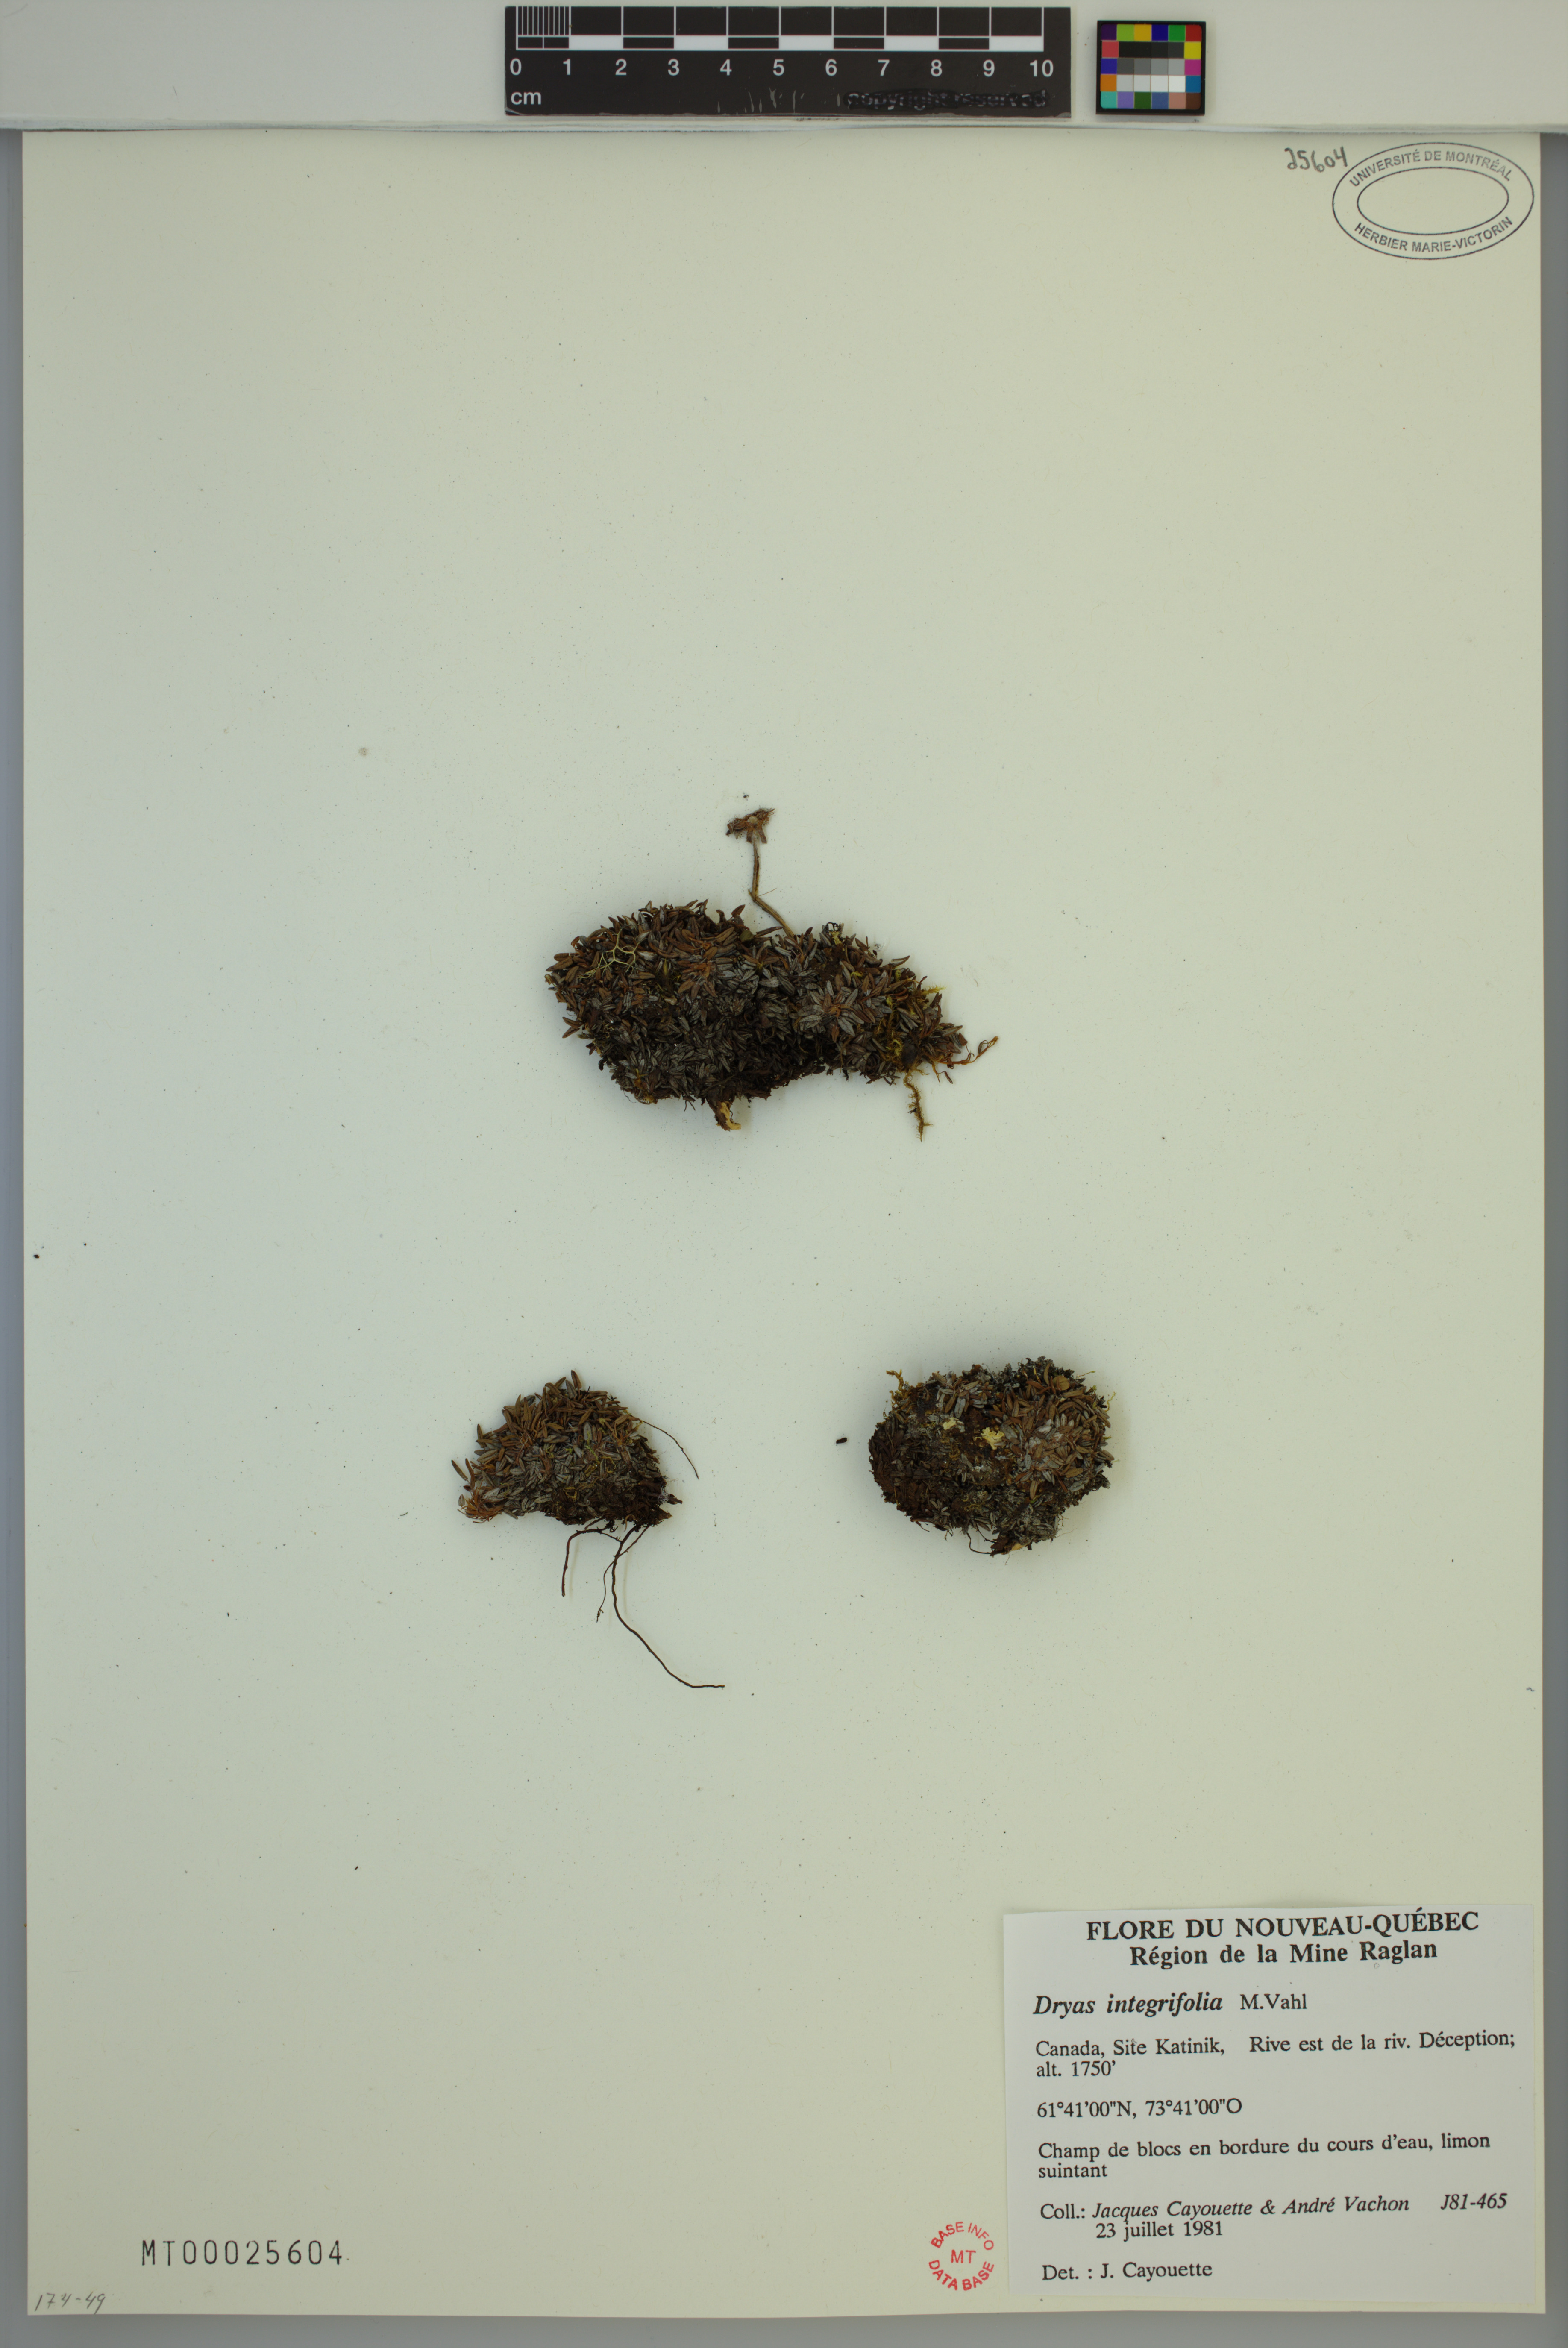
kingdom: Plantae
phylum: Tracheophyta
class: Magnoliopsida
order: Rosales
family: Rosaceae
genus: Dryas
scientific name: Dryas integrifolia
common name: Entire-leaved mountain avens
